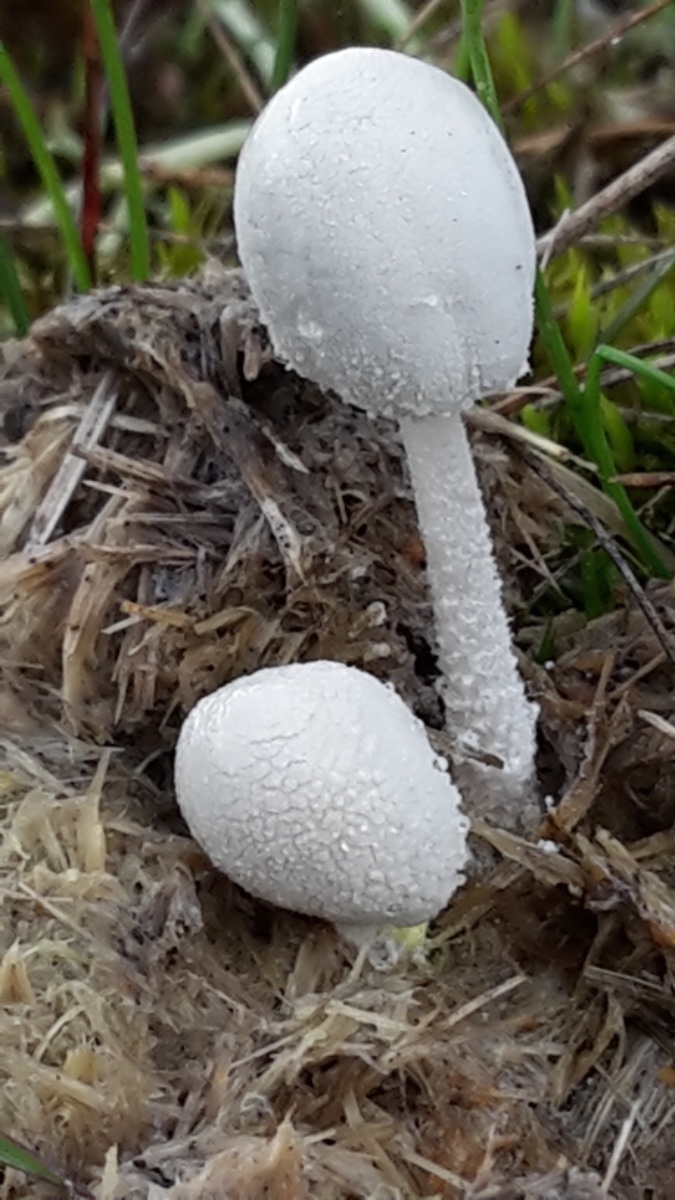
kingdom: Fungi
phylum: Basidiomycota
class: Agaricomycetes
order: Agaricales
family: Psathyrellaceae
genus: Coprinopsis
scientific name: Coprinopsis nivea
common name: snehvid blækhat
